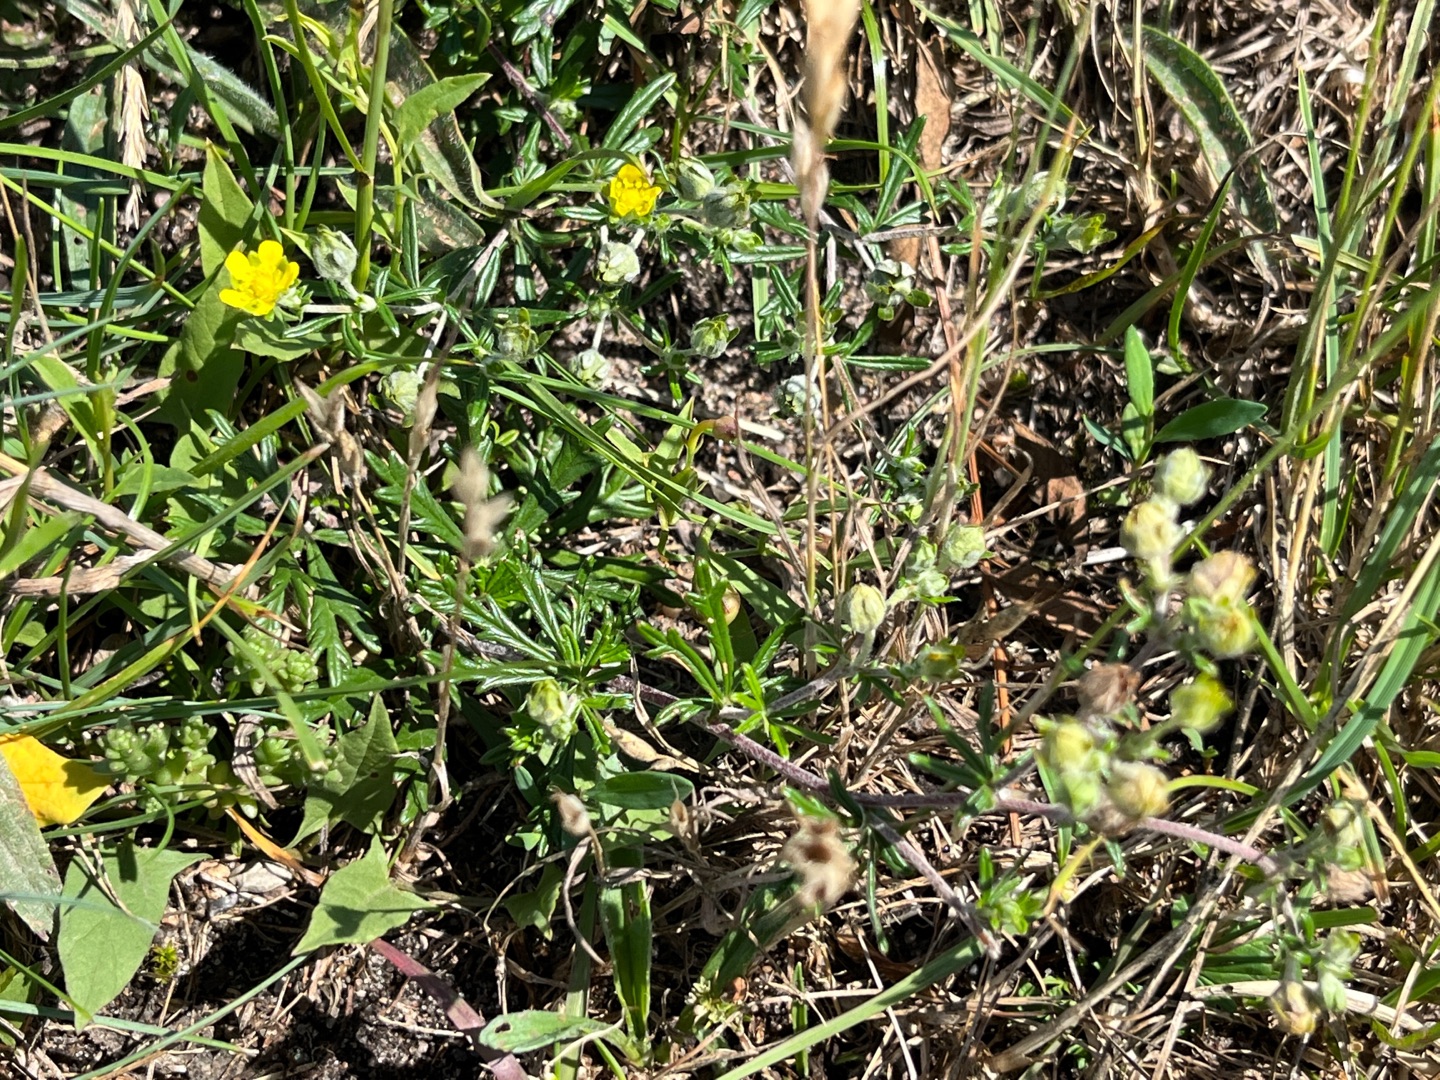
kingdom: Plantae
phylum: Tracheophyta
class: Magnoliopsida
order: Rosales
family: Rosaceae
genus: Potentilla
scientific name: Potentilla argentea
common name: Sølv-potentil
